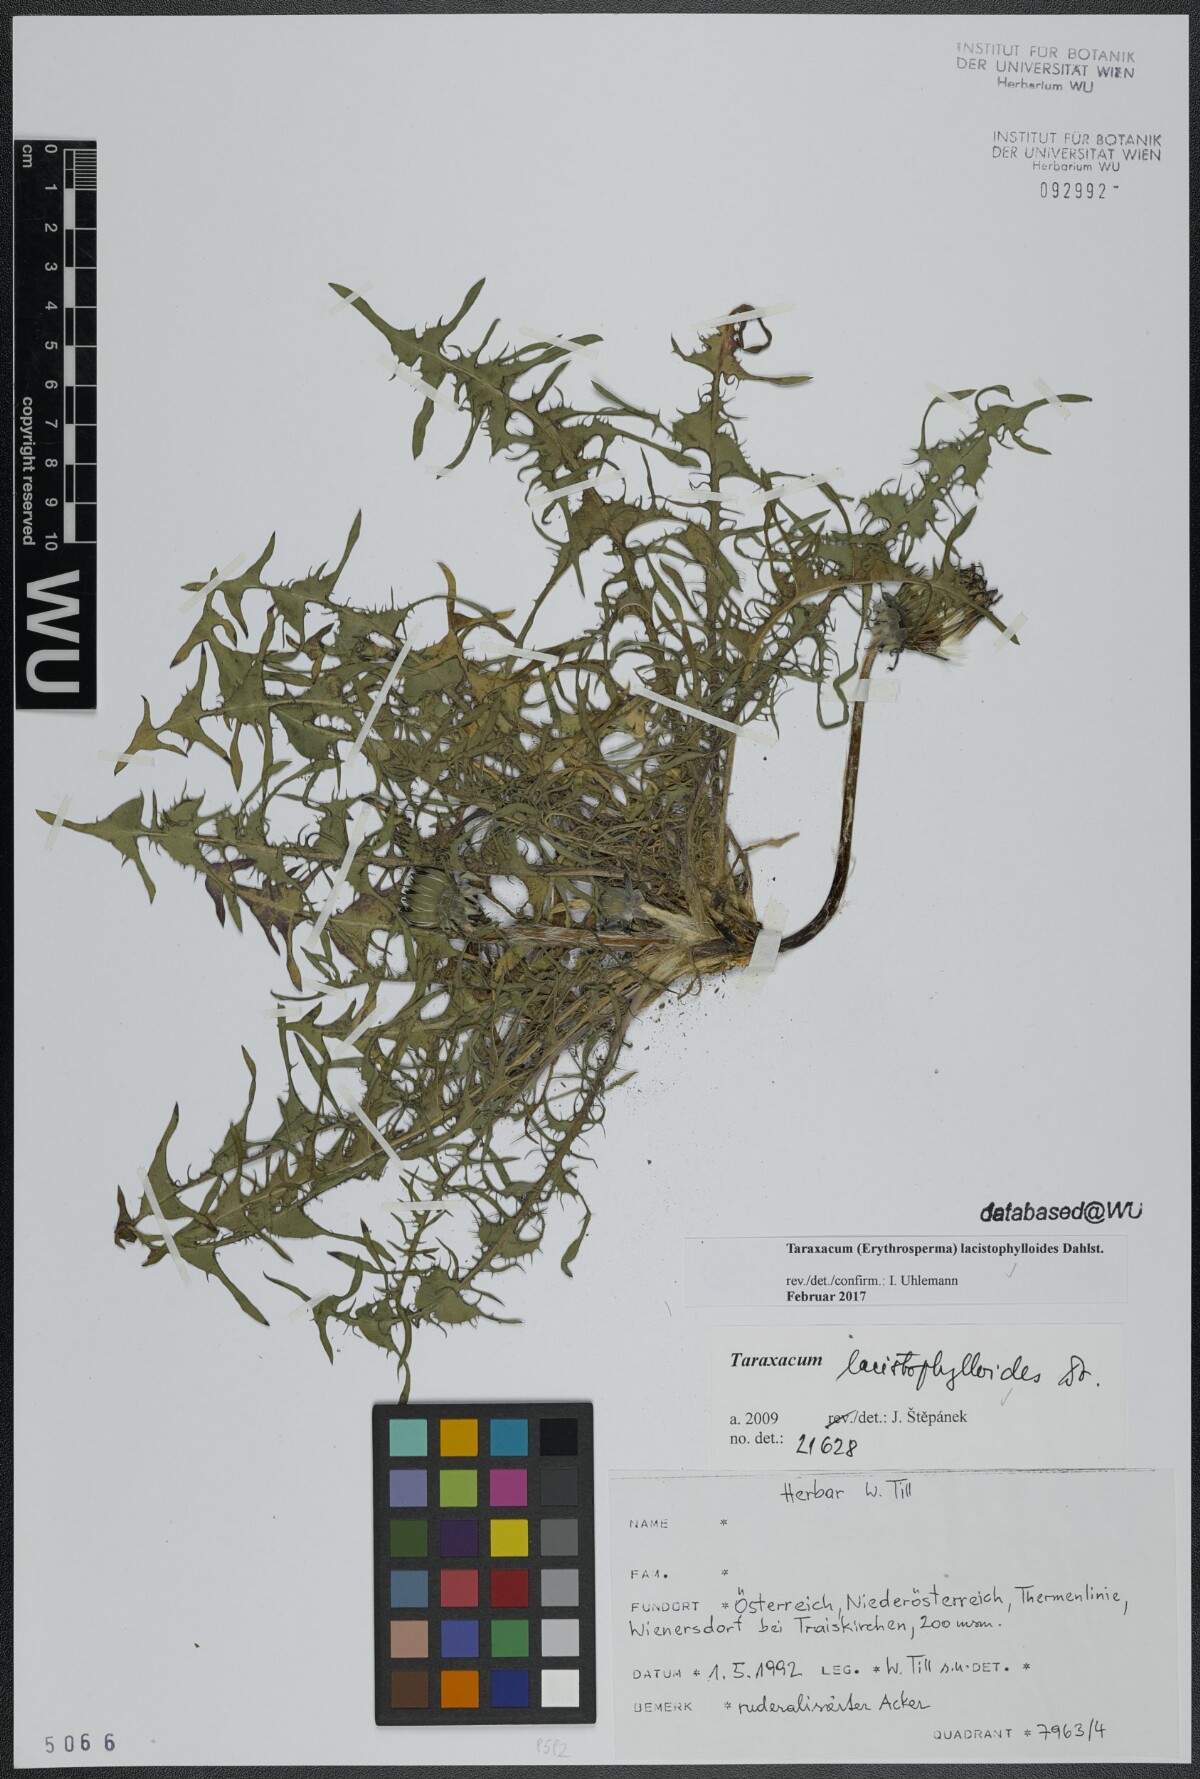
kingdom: Plantae
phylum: Tracheophyta
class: Magnoliopsida
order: Asterales
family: Asteraceae
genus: Taraxacum
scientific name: Taraxacum lacistophylloides
